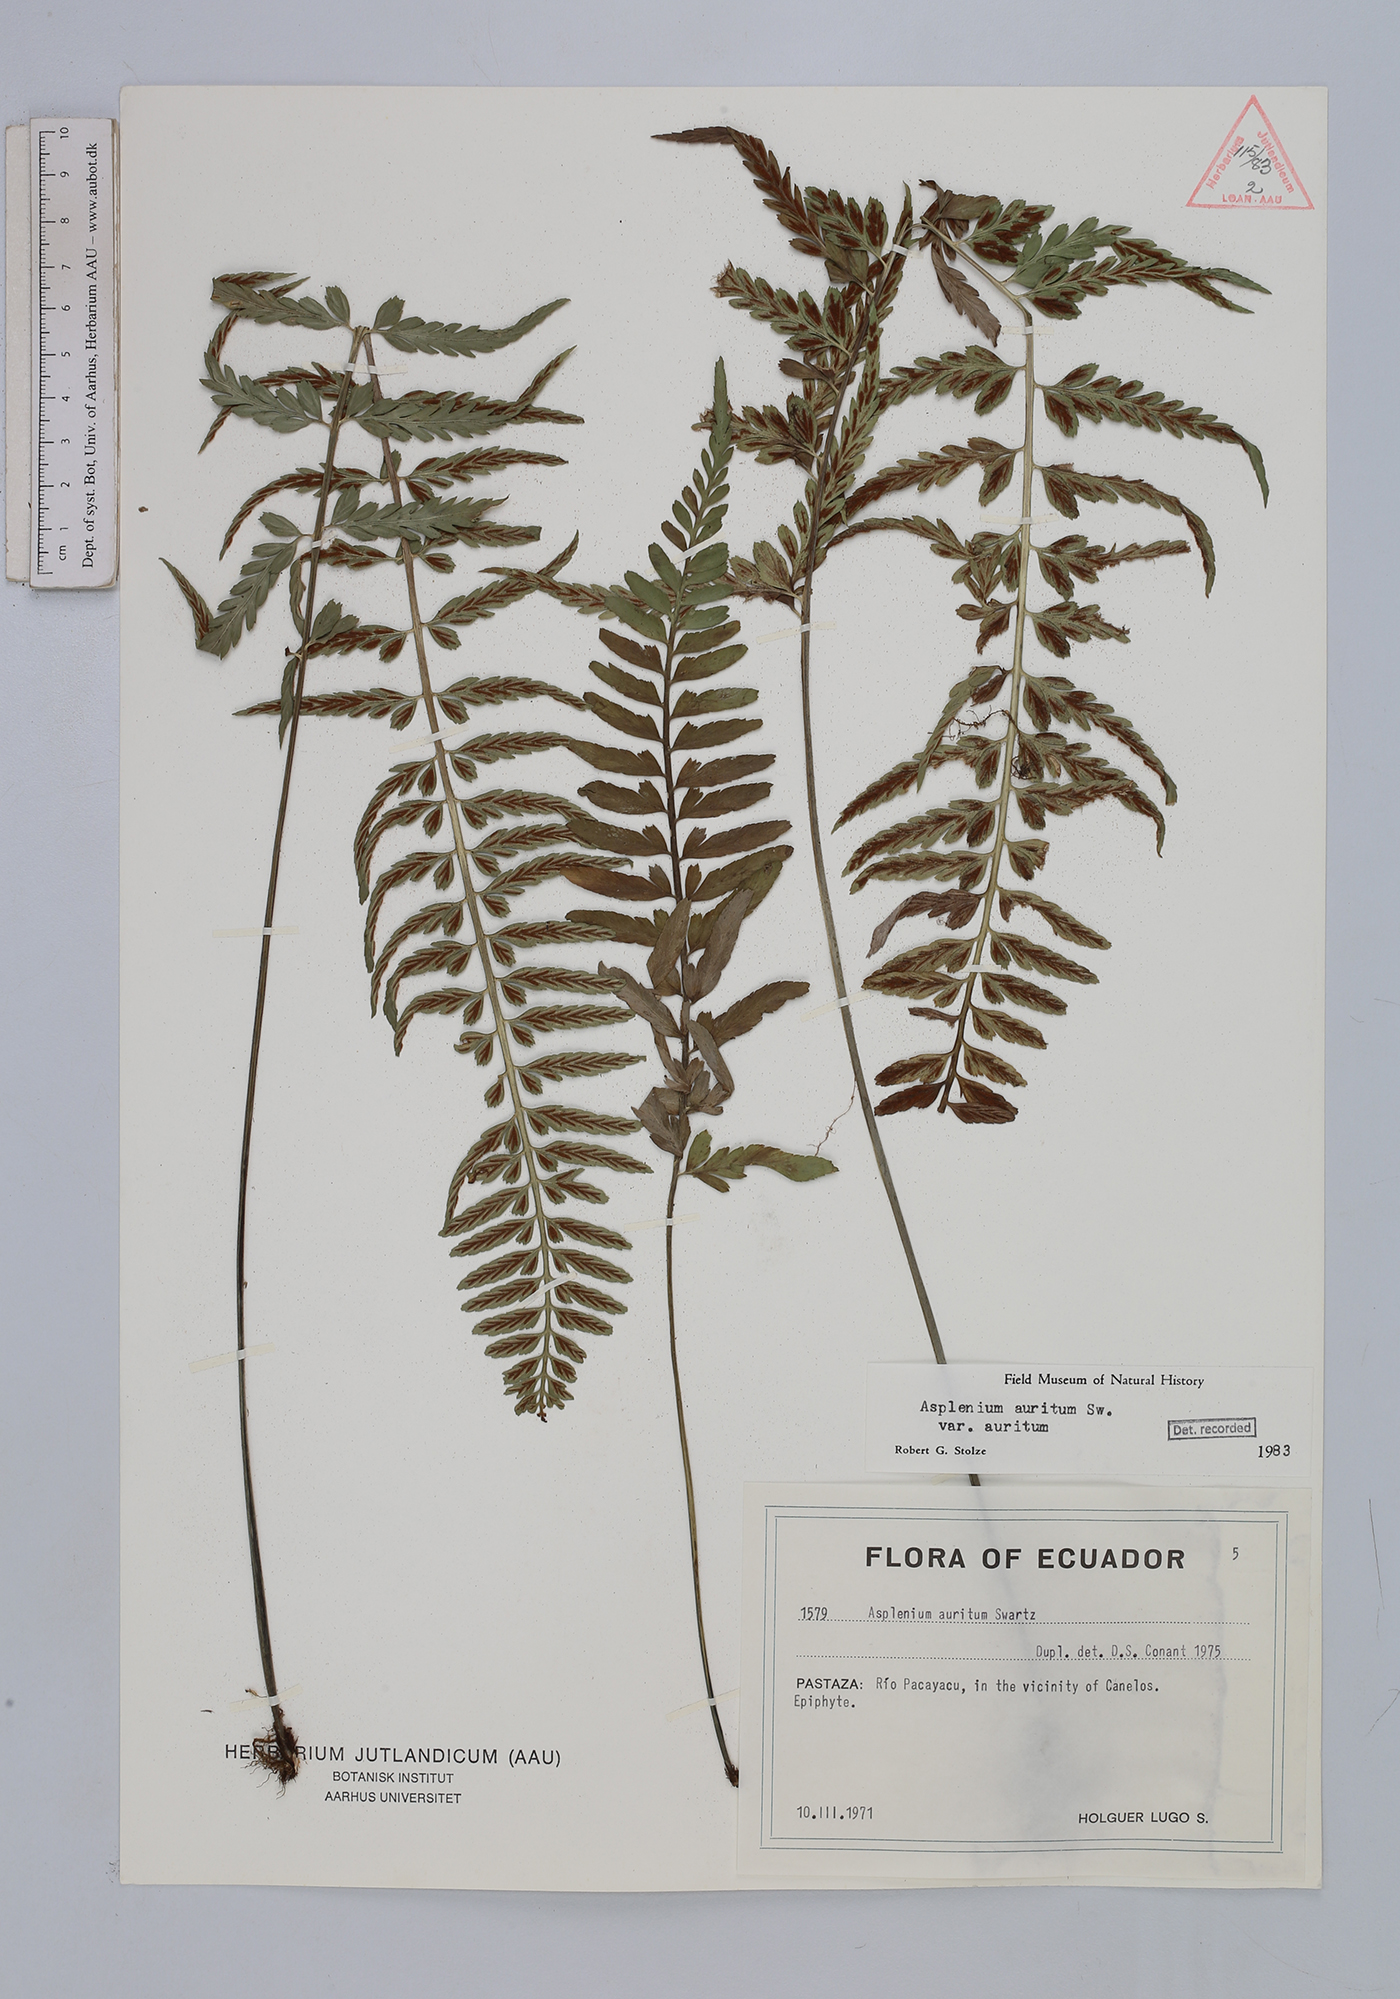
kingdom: Plantae
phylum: Tracheophyta
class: Polypodiopsida
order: Polypodiales
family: Aspleniaceae
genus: Asplenium
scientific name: Asplenium auritum
